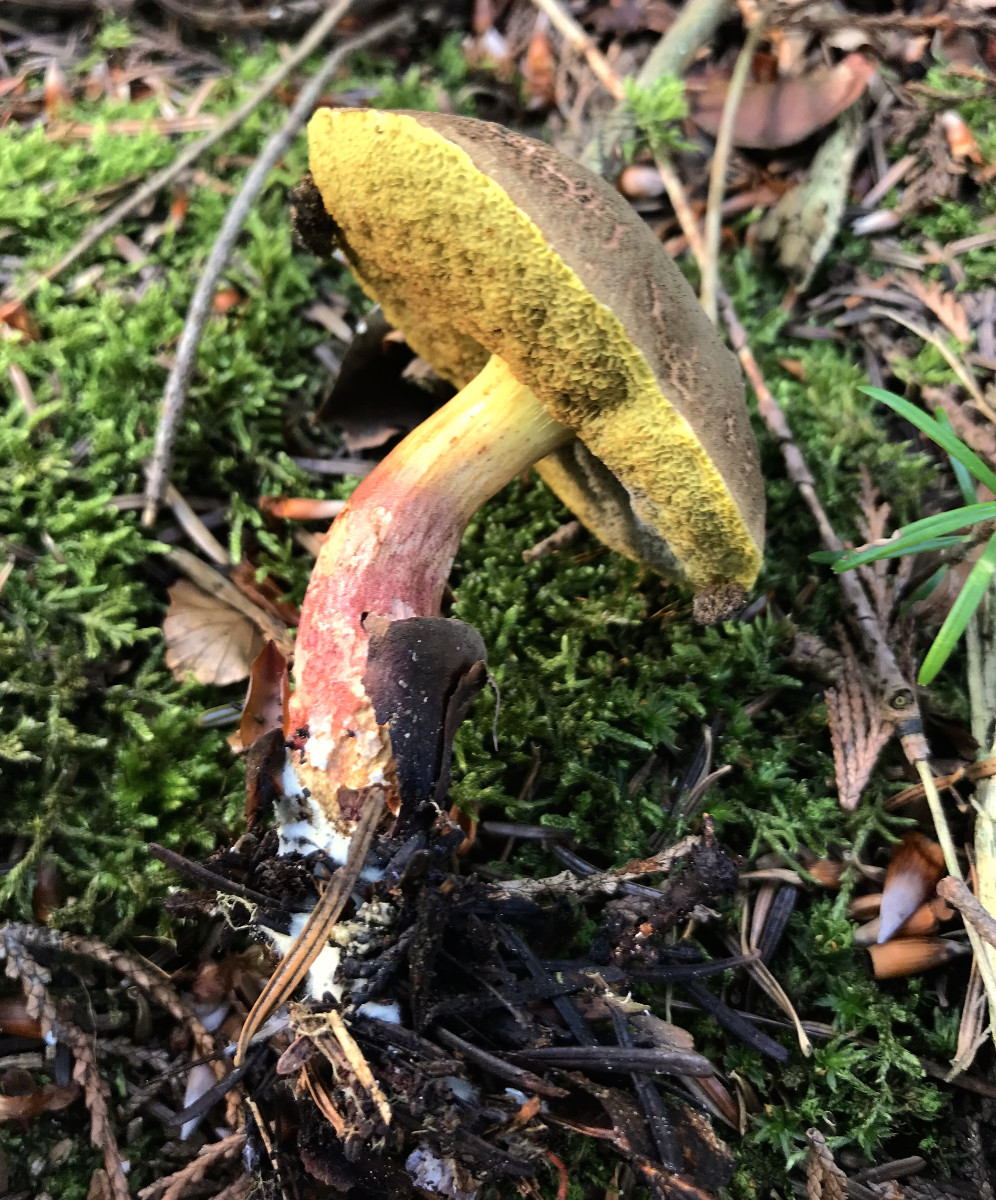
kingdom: Fungi
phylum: Basidiomycota
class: Agaricomycetes
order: Boletales
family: Boletaceae
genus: Xerocomellus
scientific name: Xerocomellus
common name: dværgrørhat
